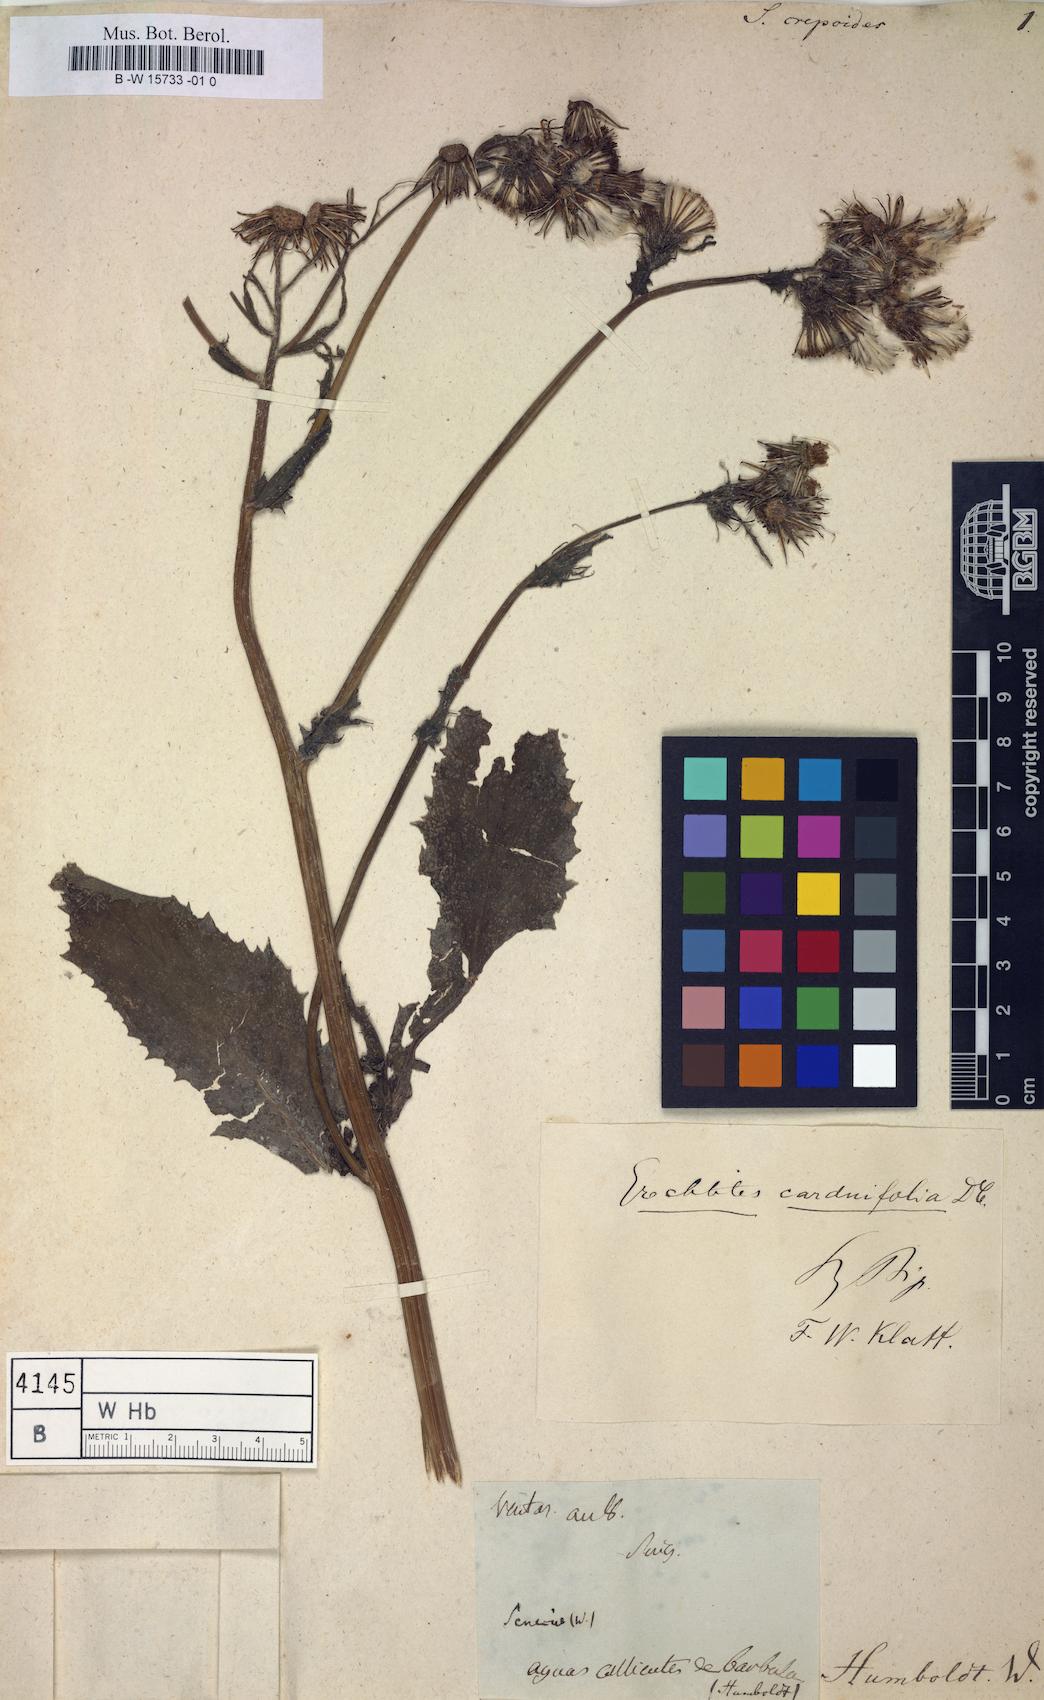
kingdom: Plantae
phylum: Tracheophyta
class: Magnoliopsida
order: Asterales
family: Asteraceae
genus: Senecio
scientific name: Senecio troncosii
